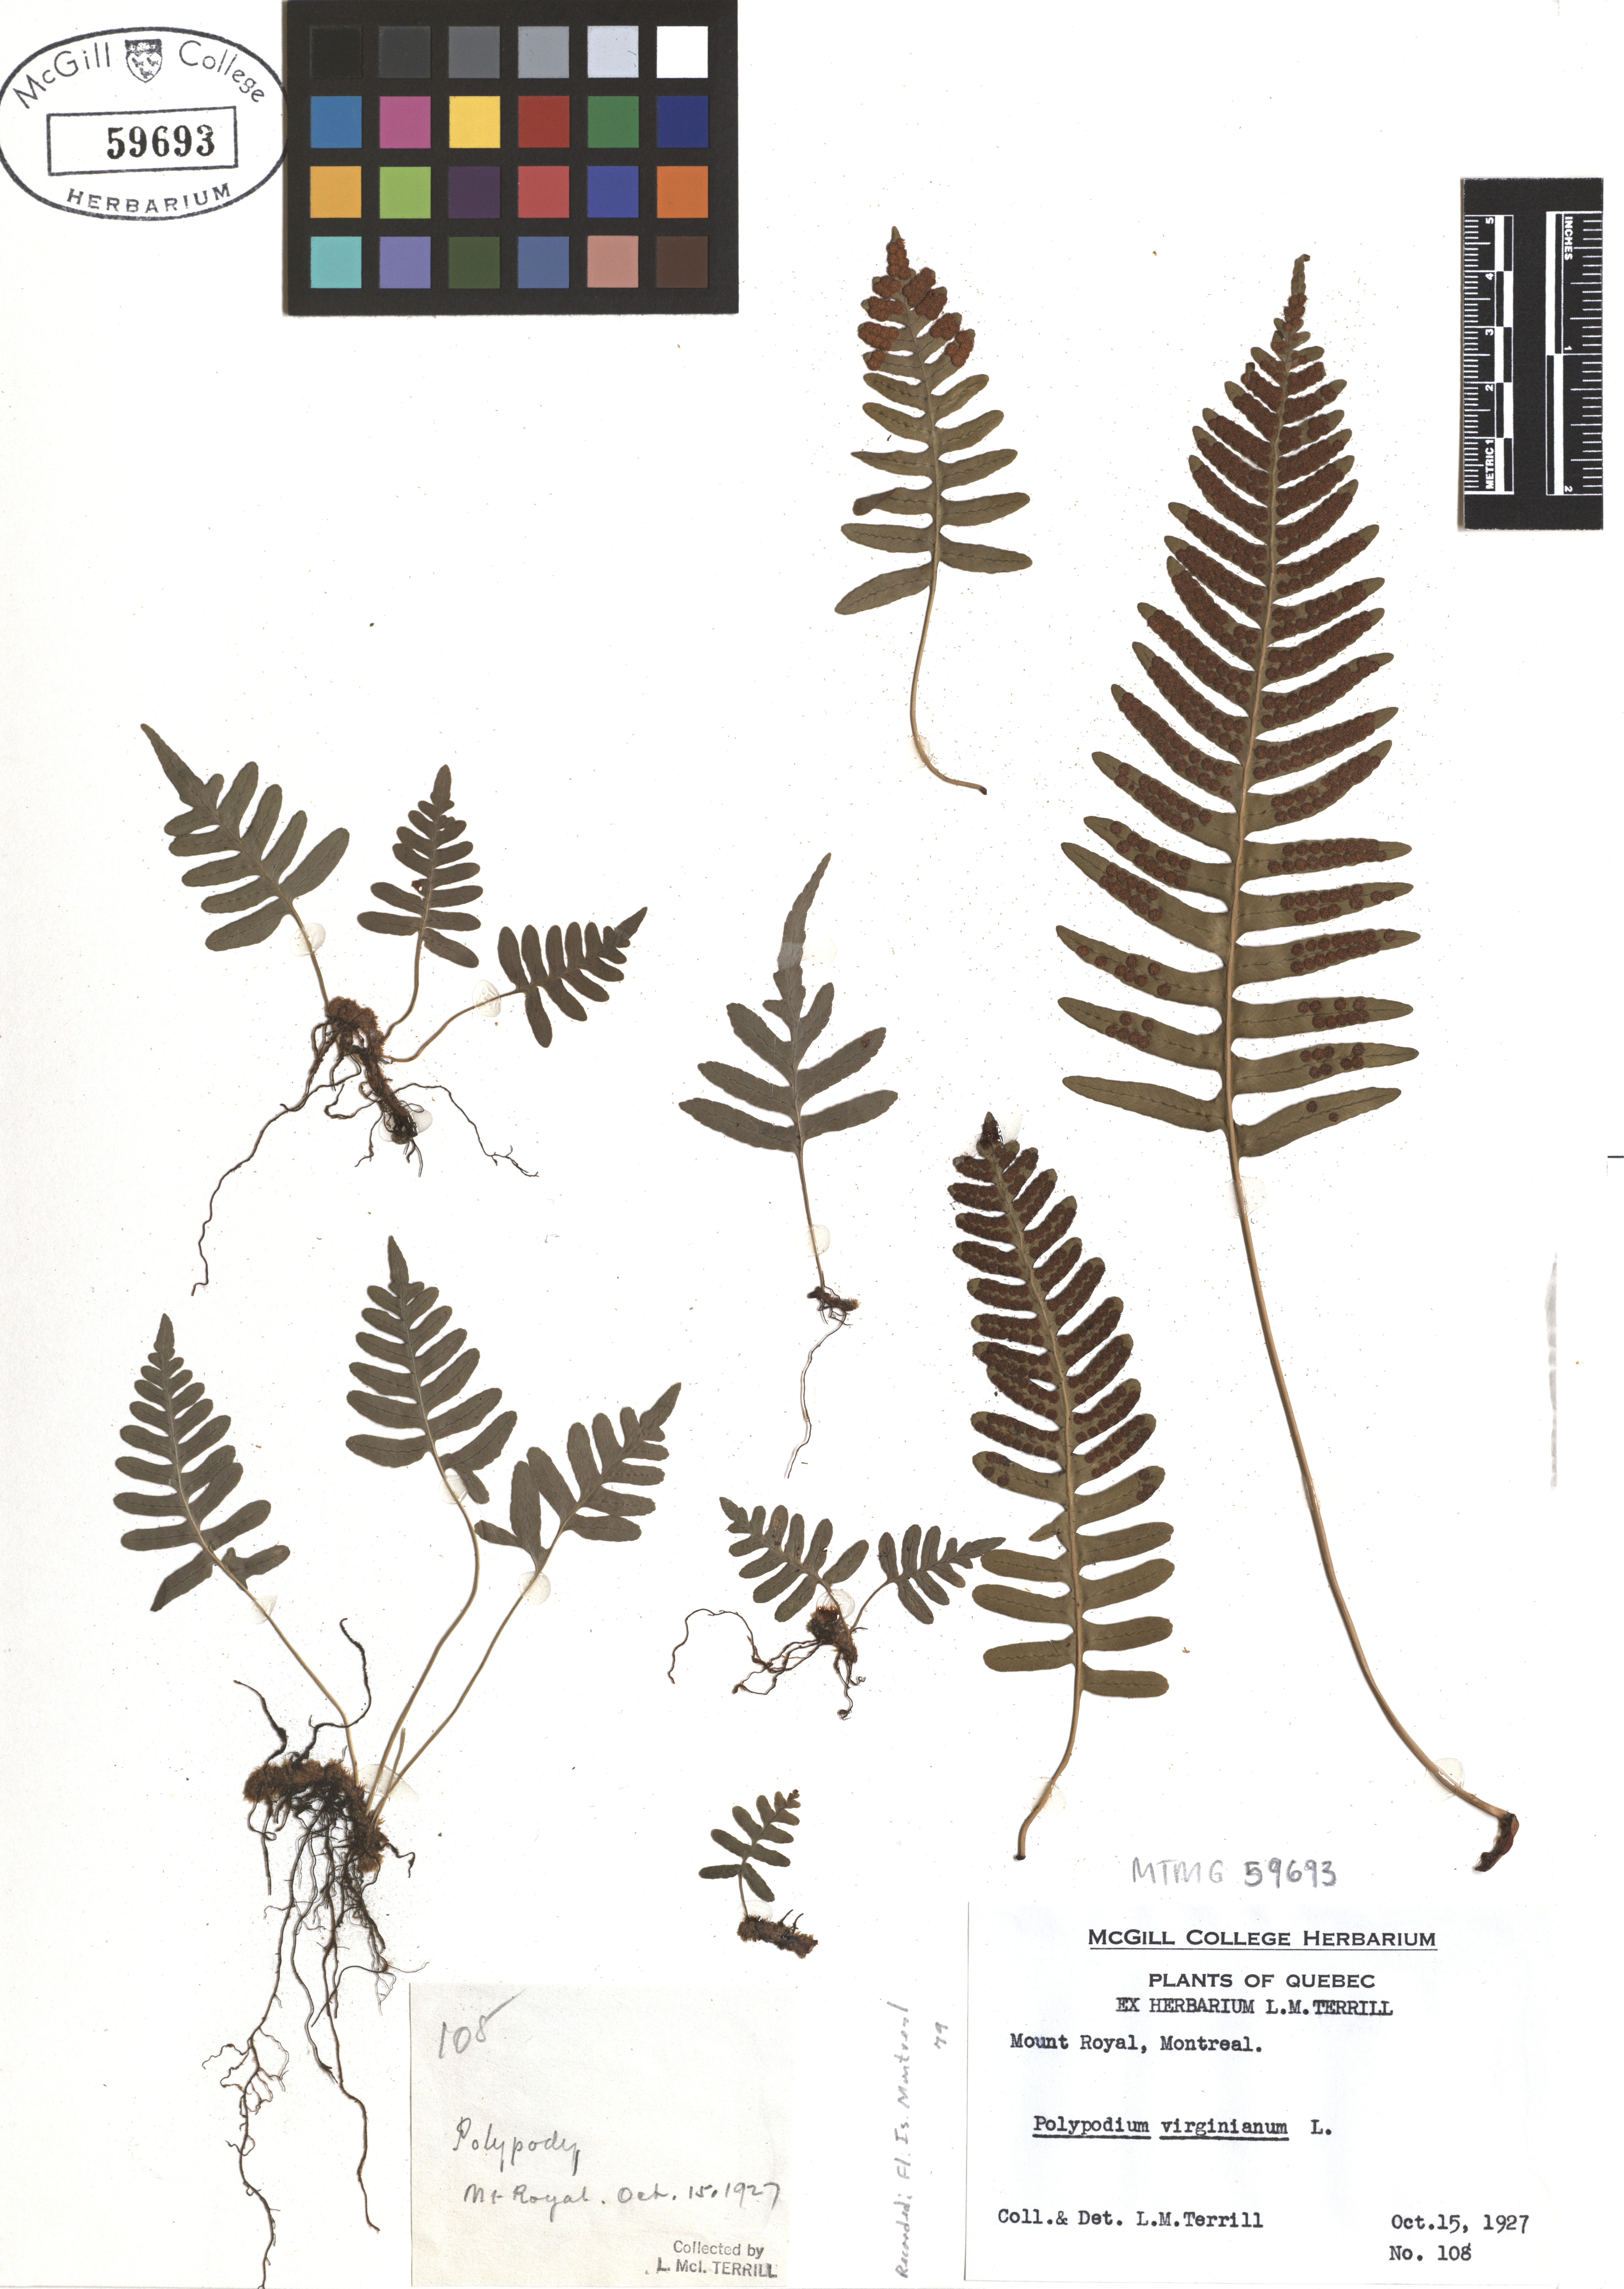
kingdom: Plantae
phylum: Tracheophyta
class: Polypodiopsida
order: Polypodiales
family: Polypodiaceae
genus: Polypodium
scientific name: Polypodium virginianum
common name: American wall fern
